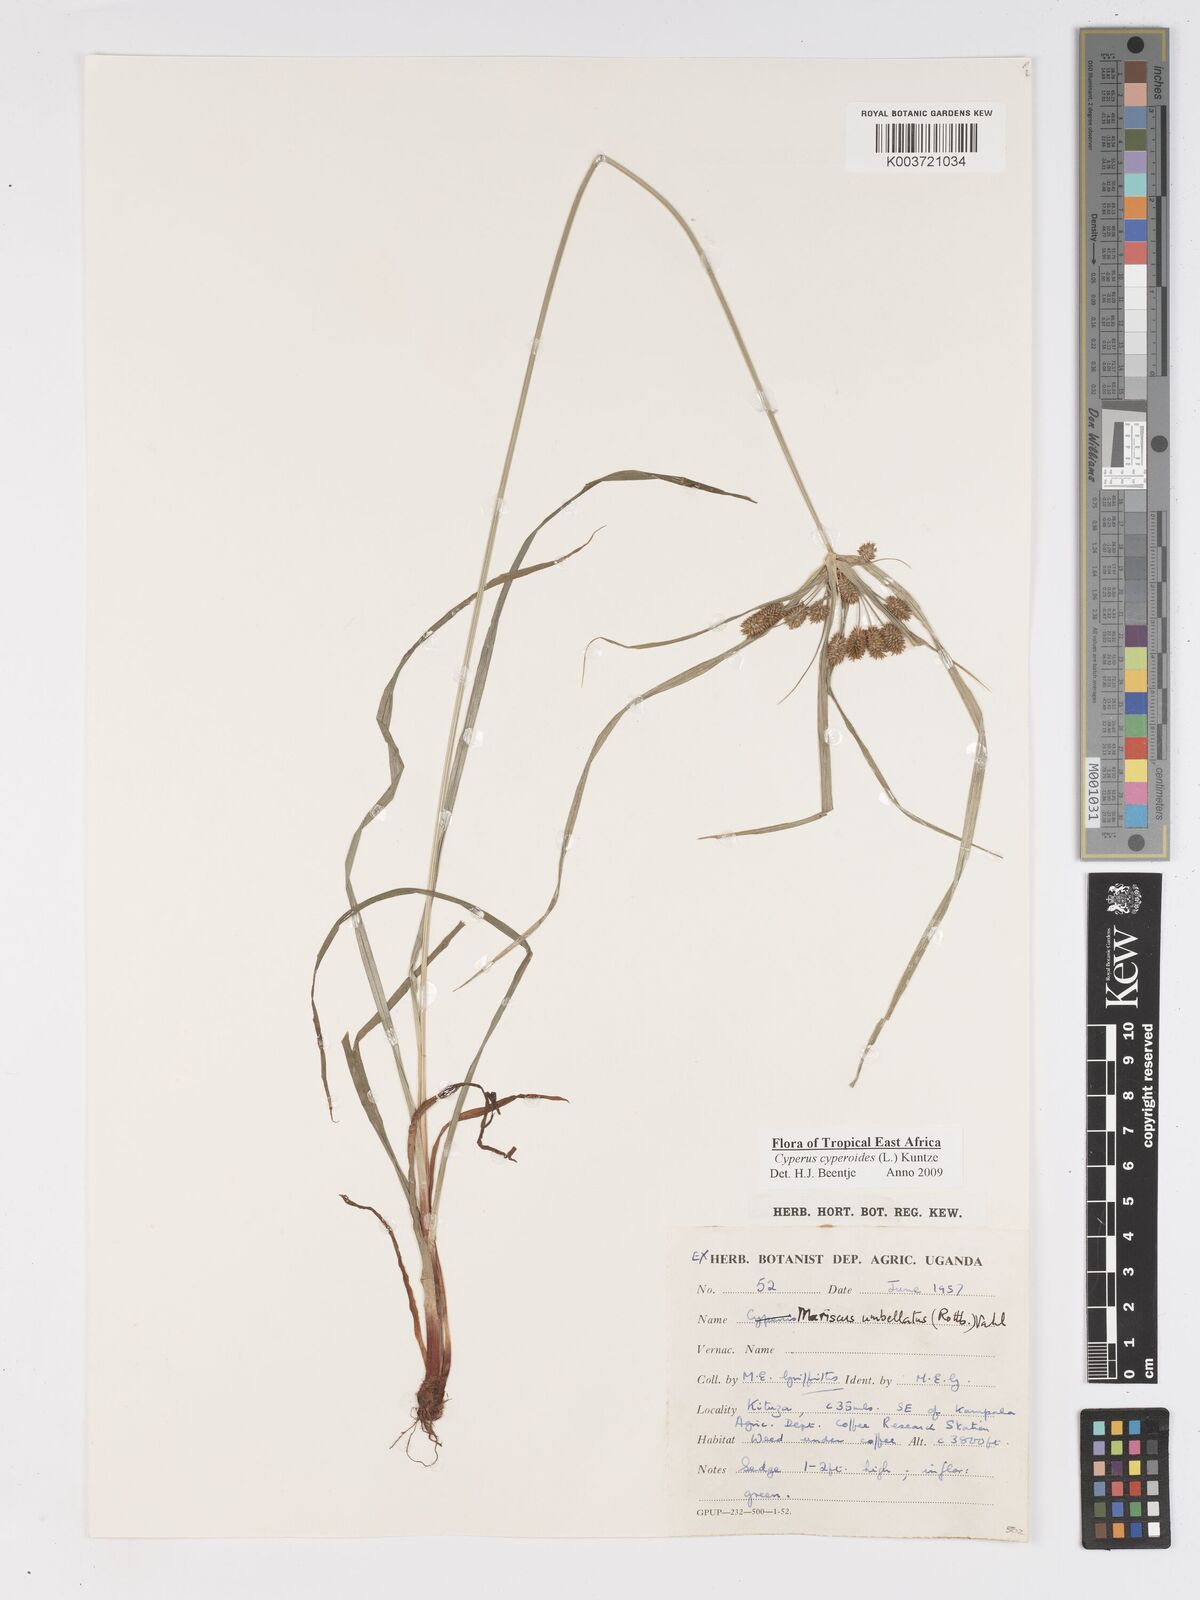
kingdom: Plantae
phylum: Tracheophyta
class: Liliopsida
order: Poales
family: Cyperaceae
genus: Cyperus
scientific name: Cyperus cyperoides
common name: Pacific island flat sedge
